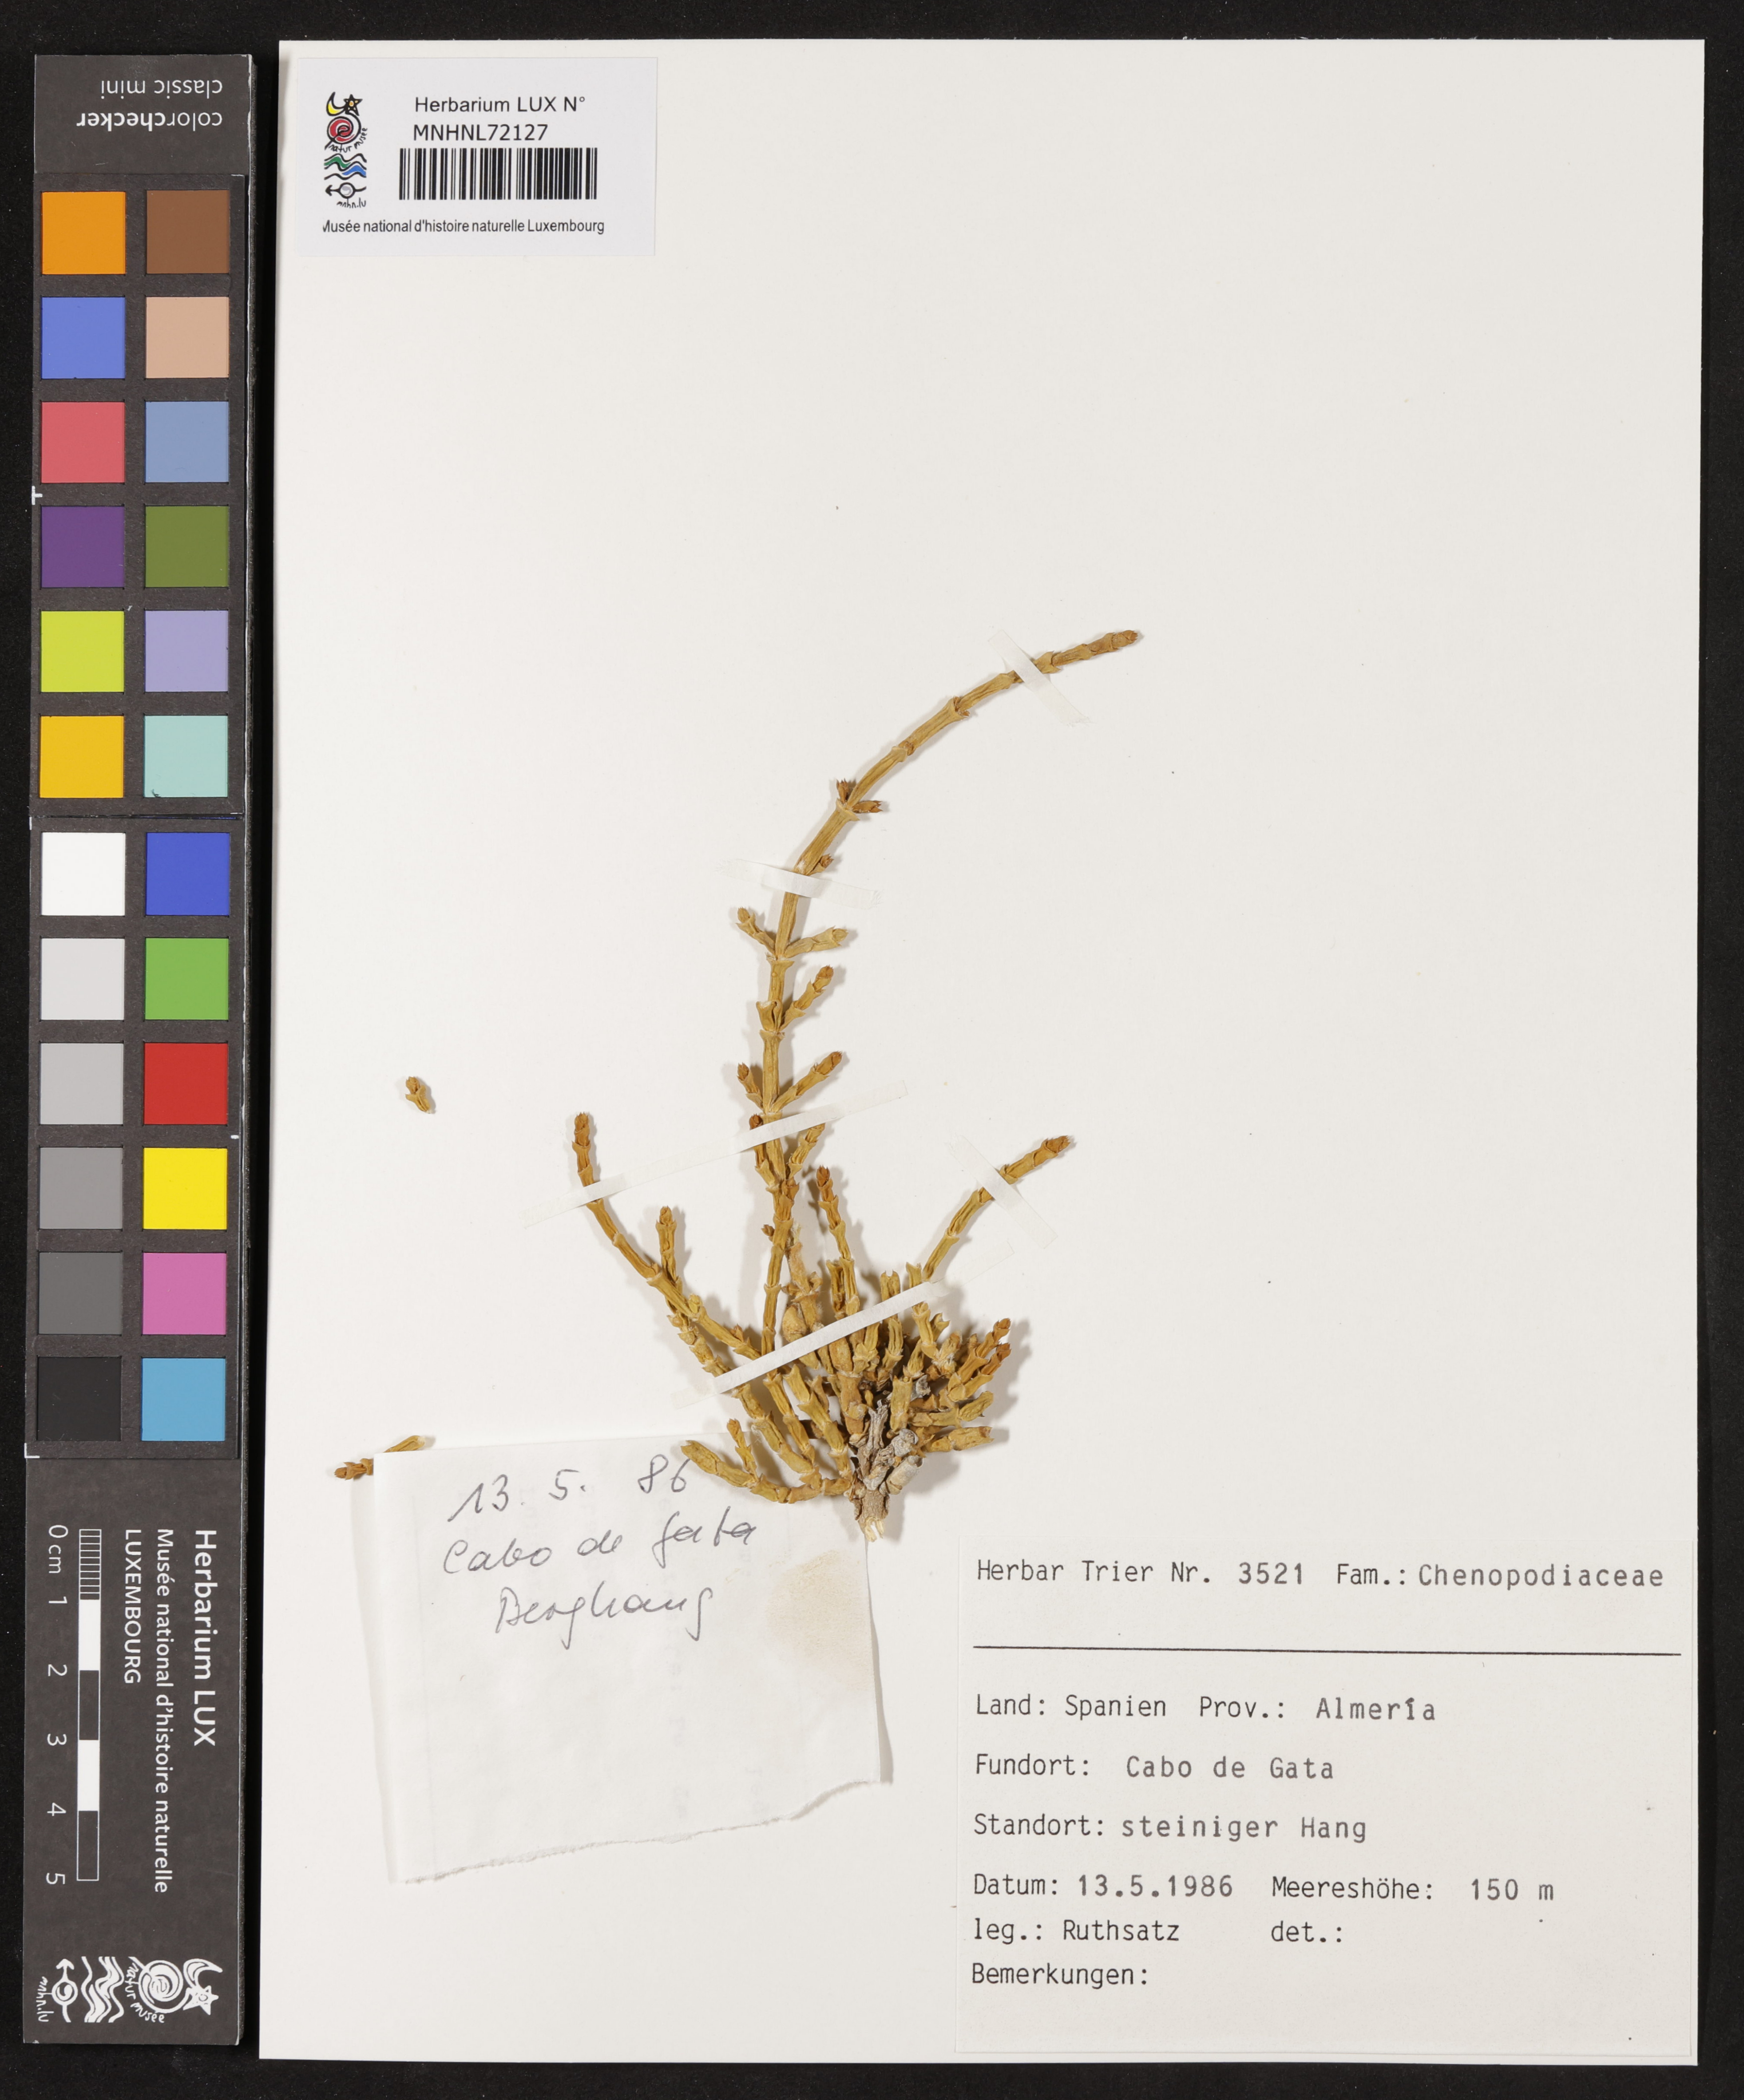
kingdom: Plantae
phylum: Tracheophyta
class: Magnoliopsida
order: Caryophyllales
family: Amaranthaceae
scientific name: Amaranthaceae
